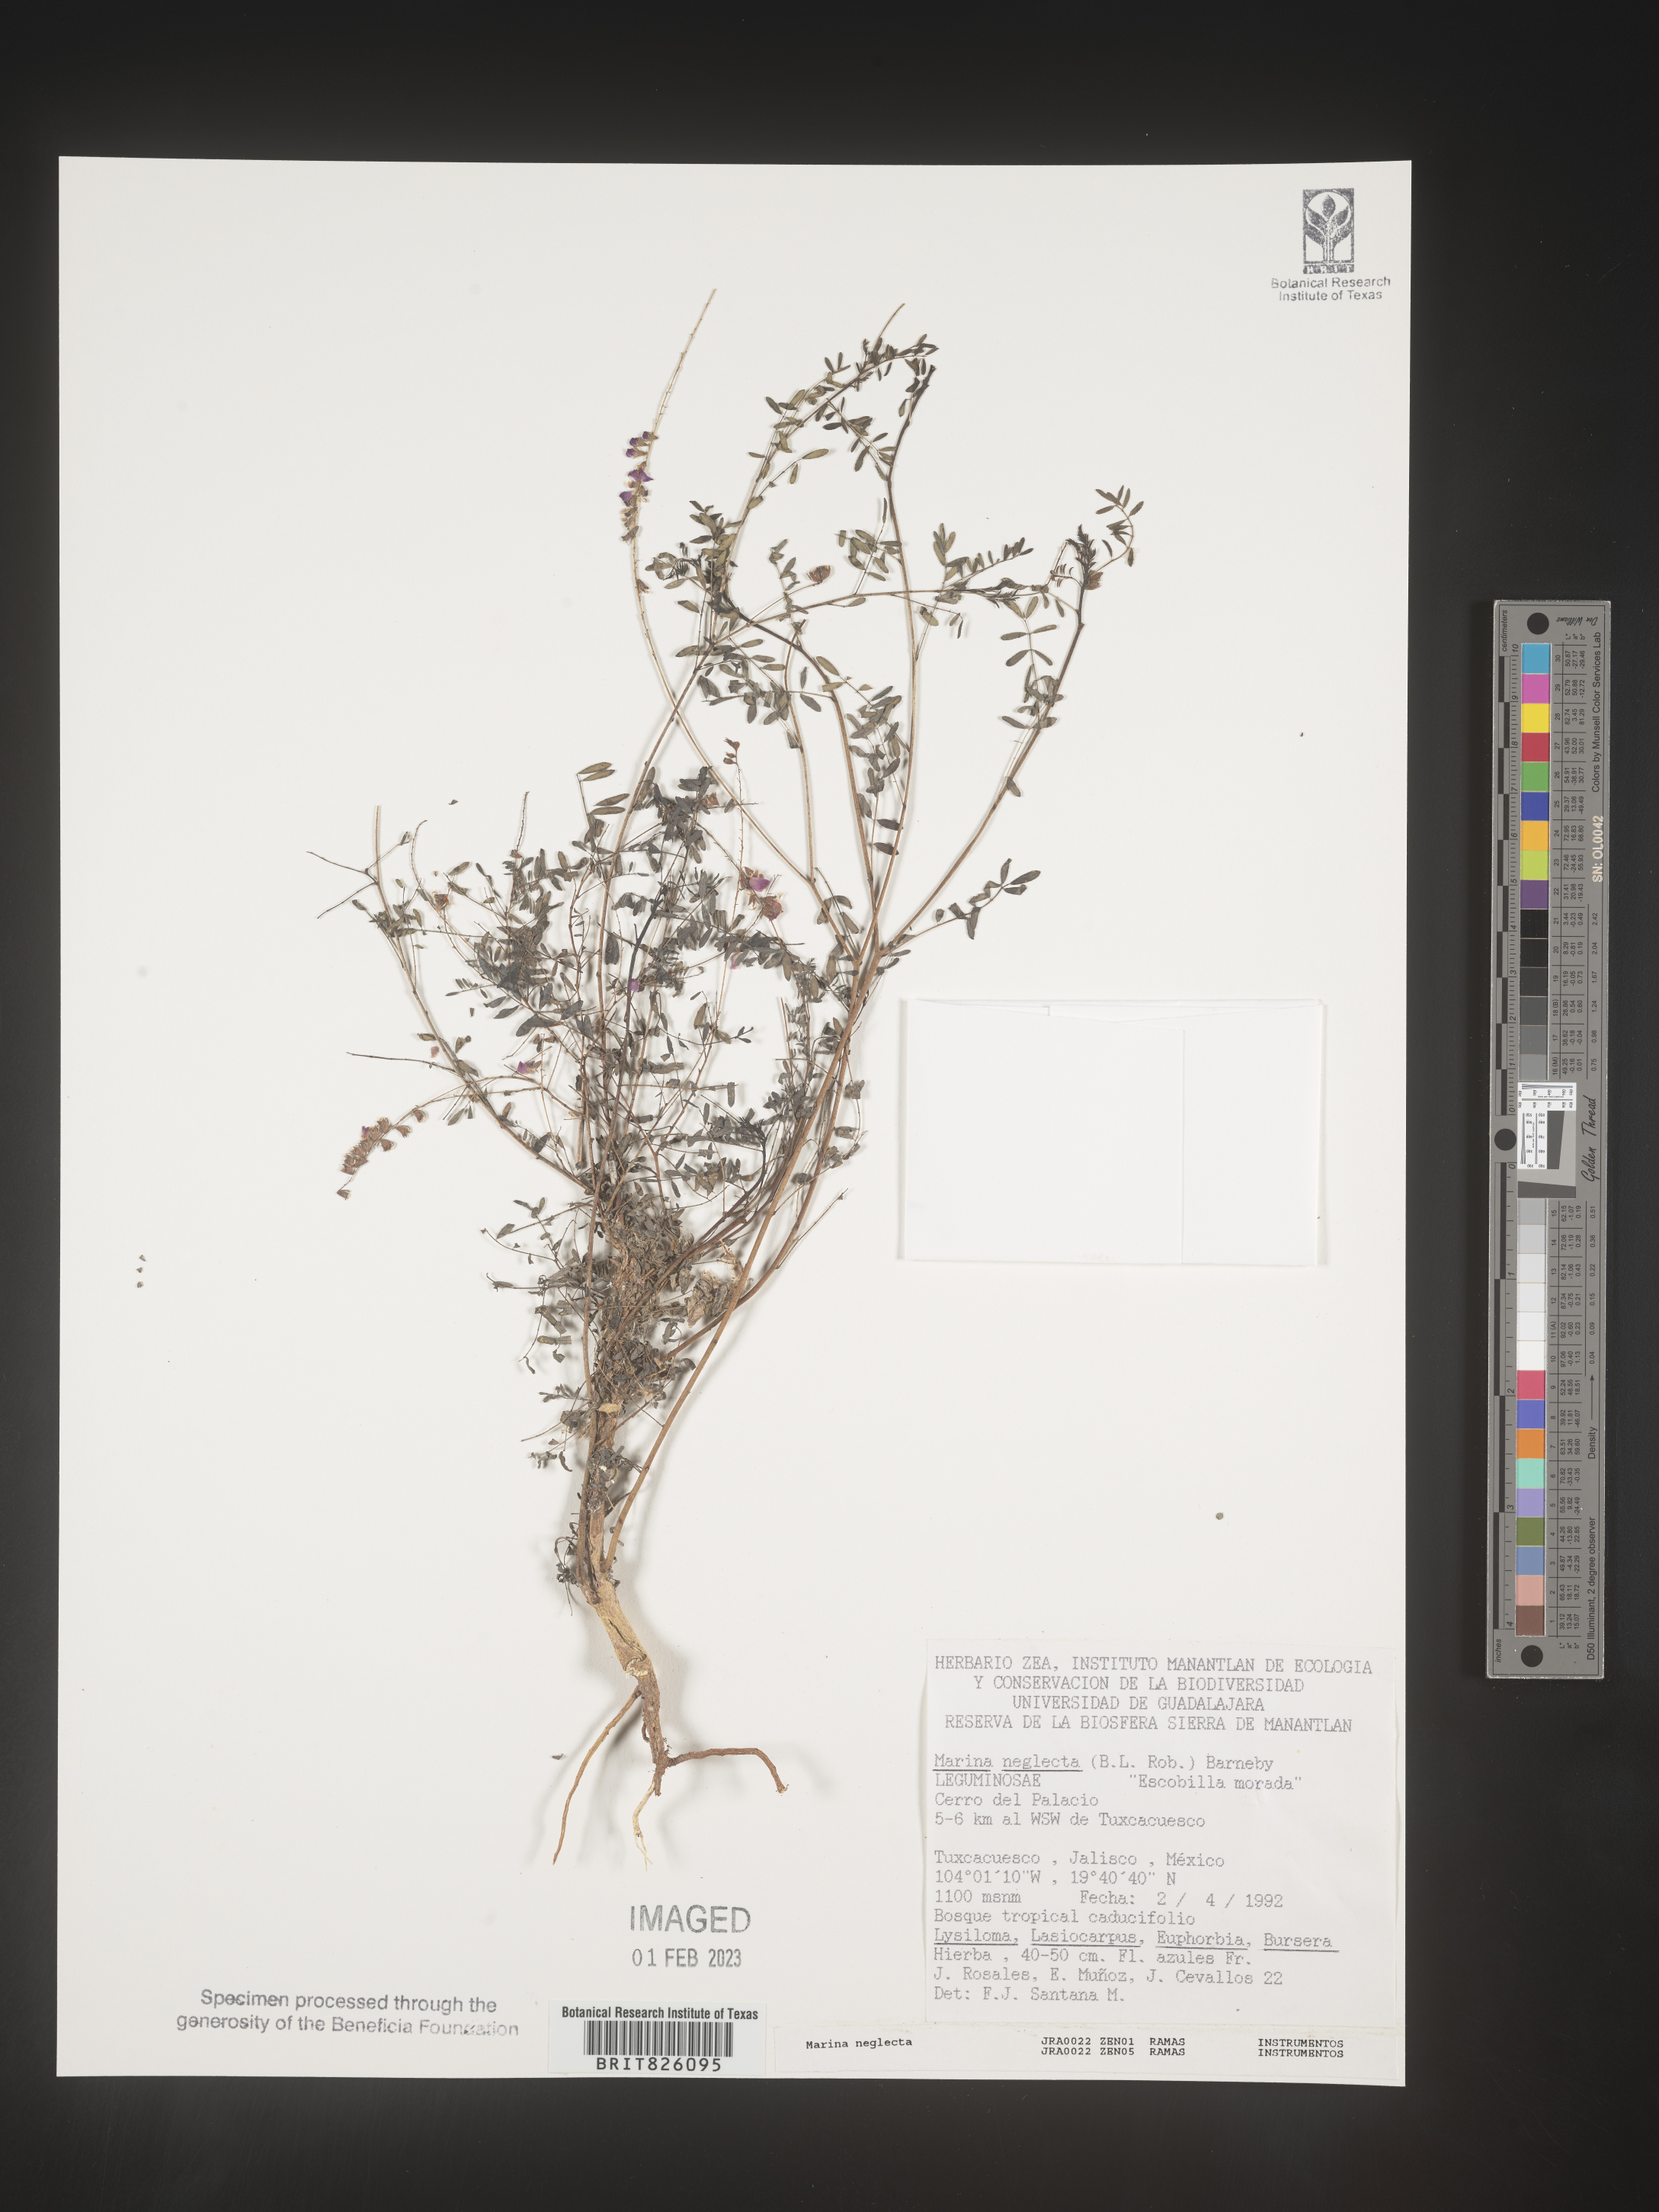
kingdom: Plantae
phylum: Tracheophyta
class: Magnoliopsida
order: Fabales
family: Fabaceae
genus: Marina
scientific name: Marina
